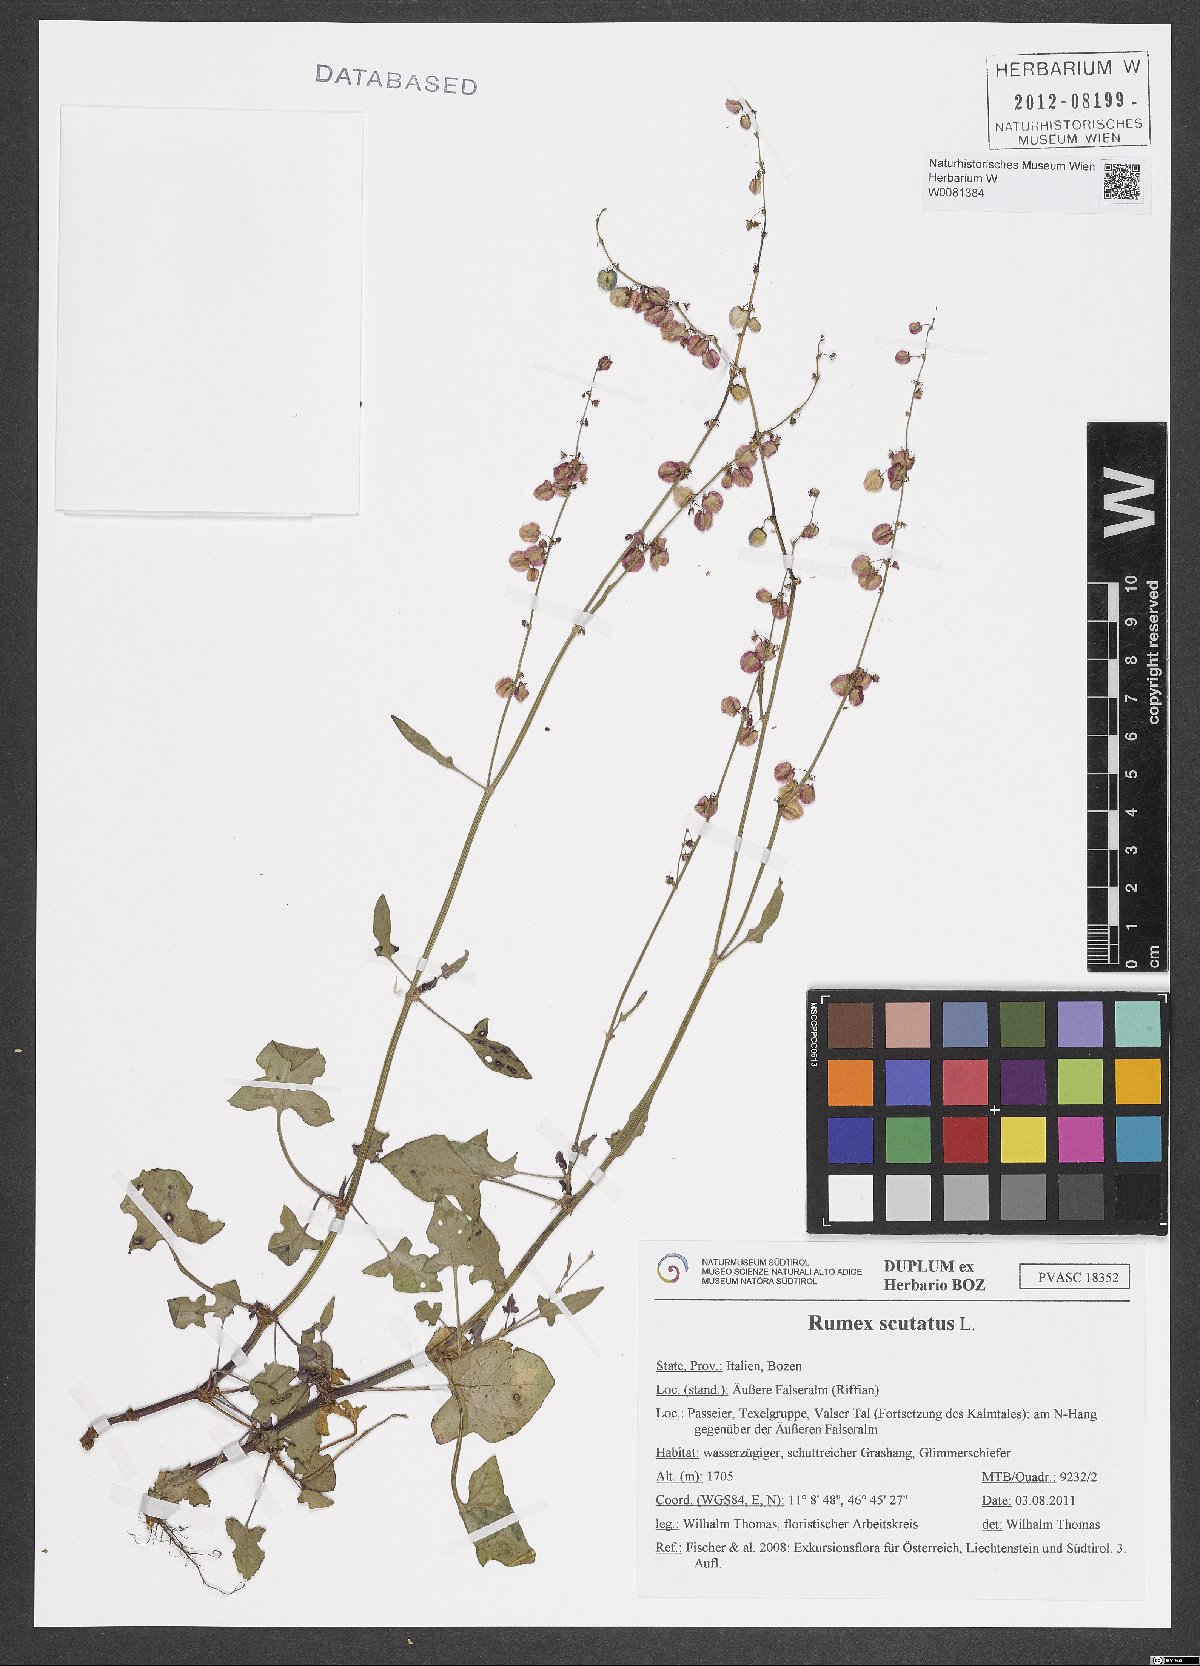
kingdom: Plantae
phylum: Tracheophyta
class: Magnoliopsida
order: Caryophyllales
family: Polygonaceae
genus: Rumex
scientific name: Rumex scutatus
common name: French sorrel
